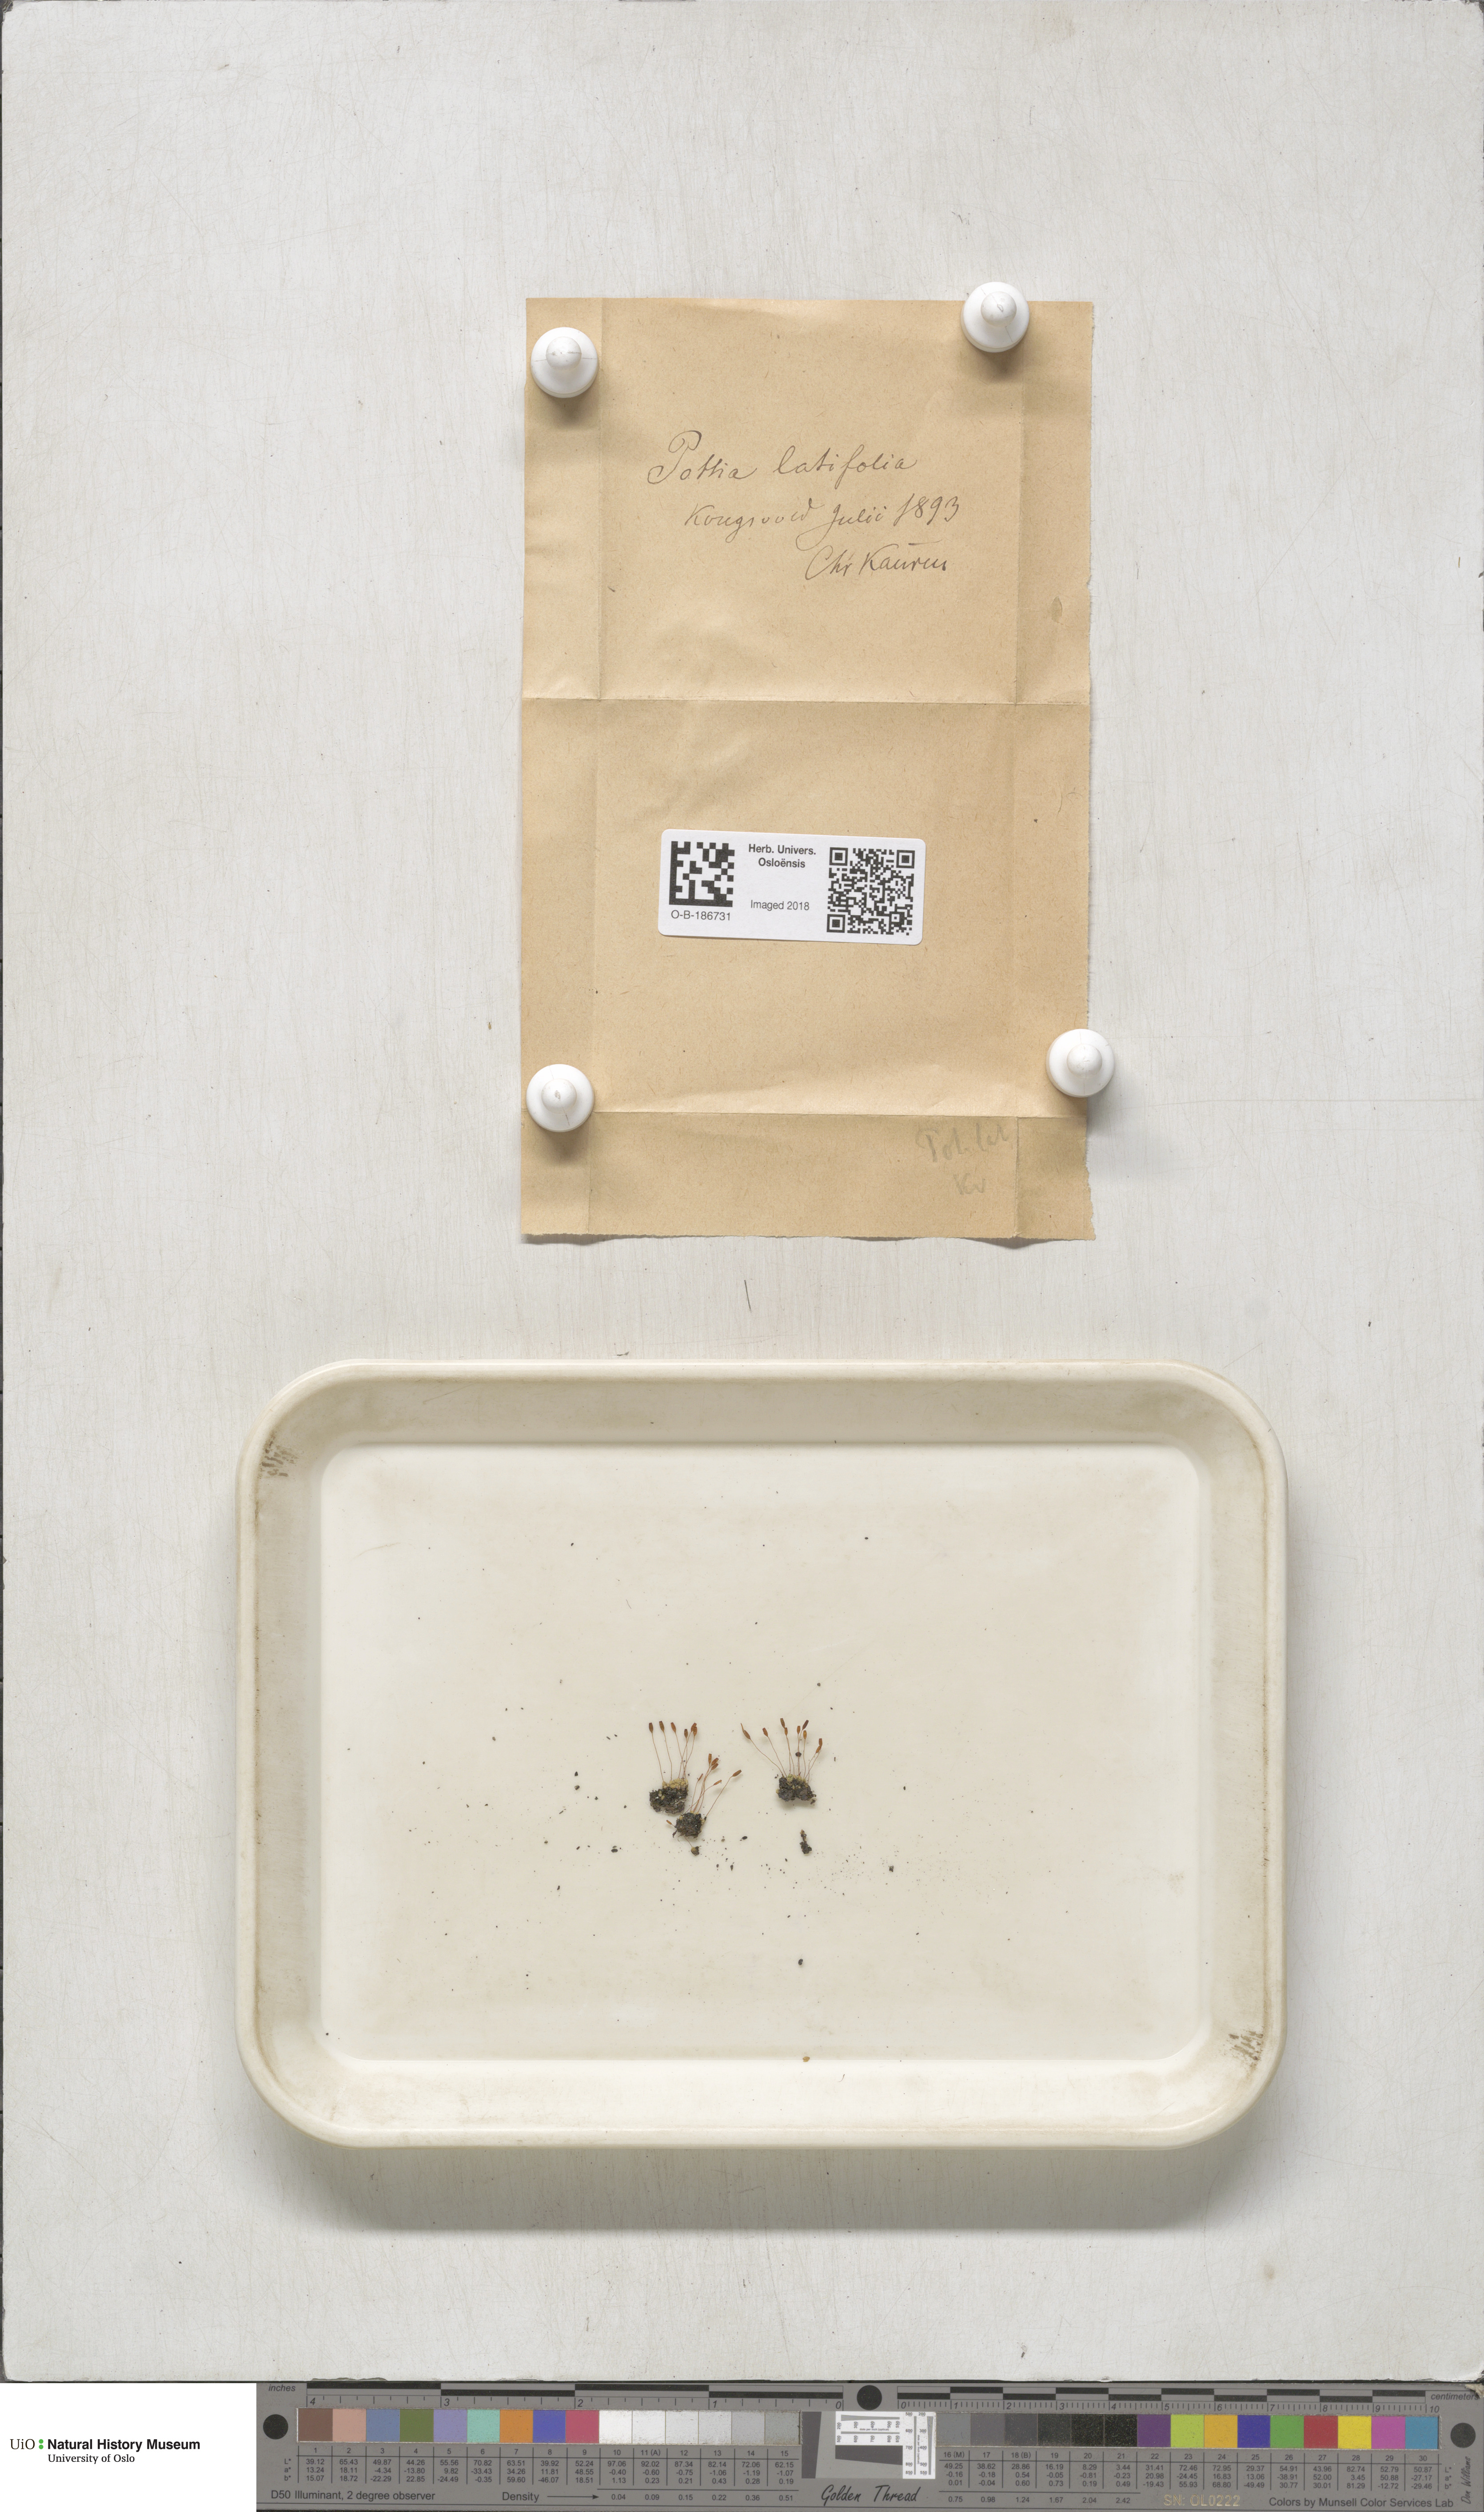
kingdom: Plantae
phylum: Bryophyta
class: Bryopsida
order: Pottiales
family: Pottiaceae
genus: Stegonia
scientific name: Stegonia latifolia
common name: Hood-leaved screw-moss
